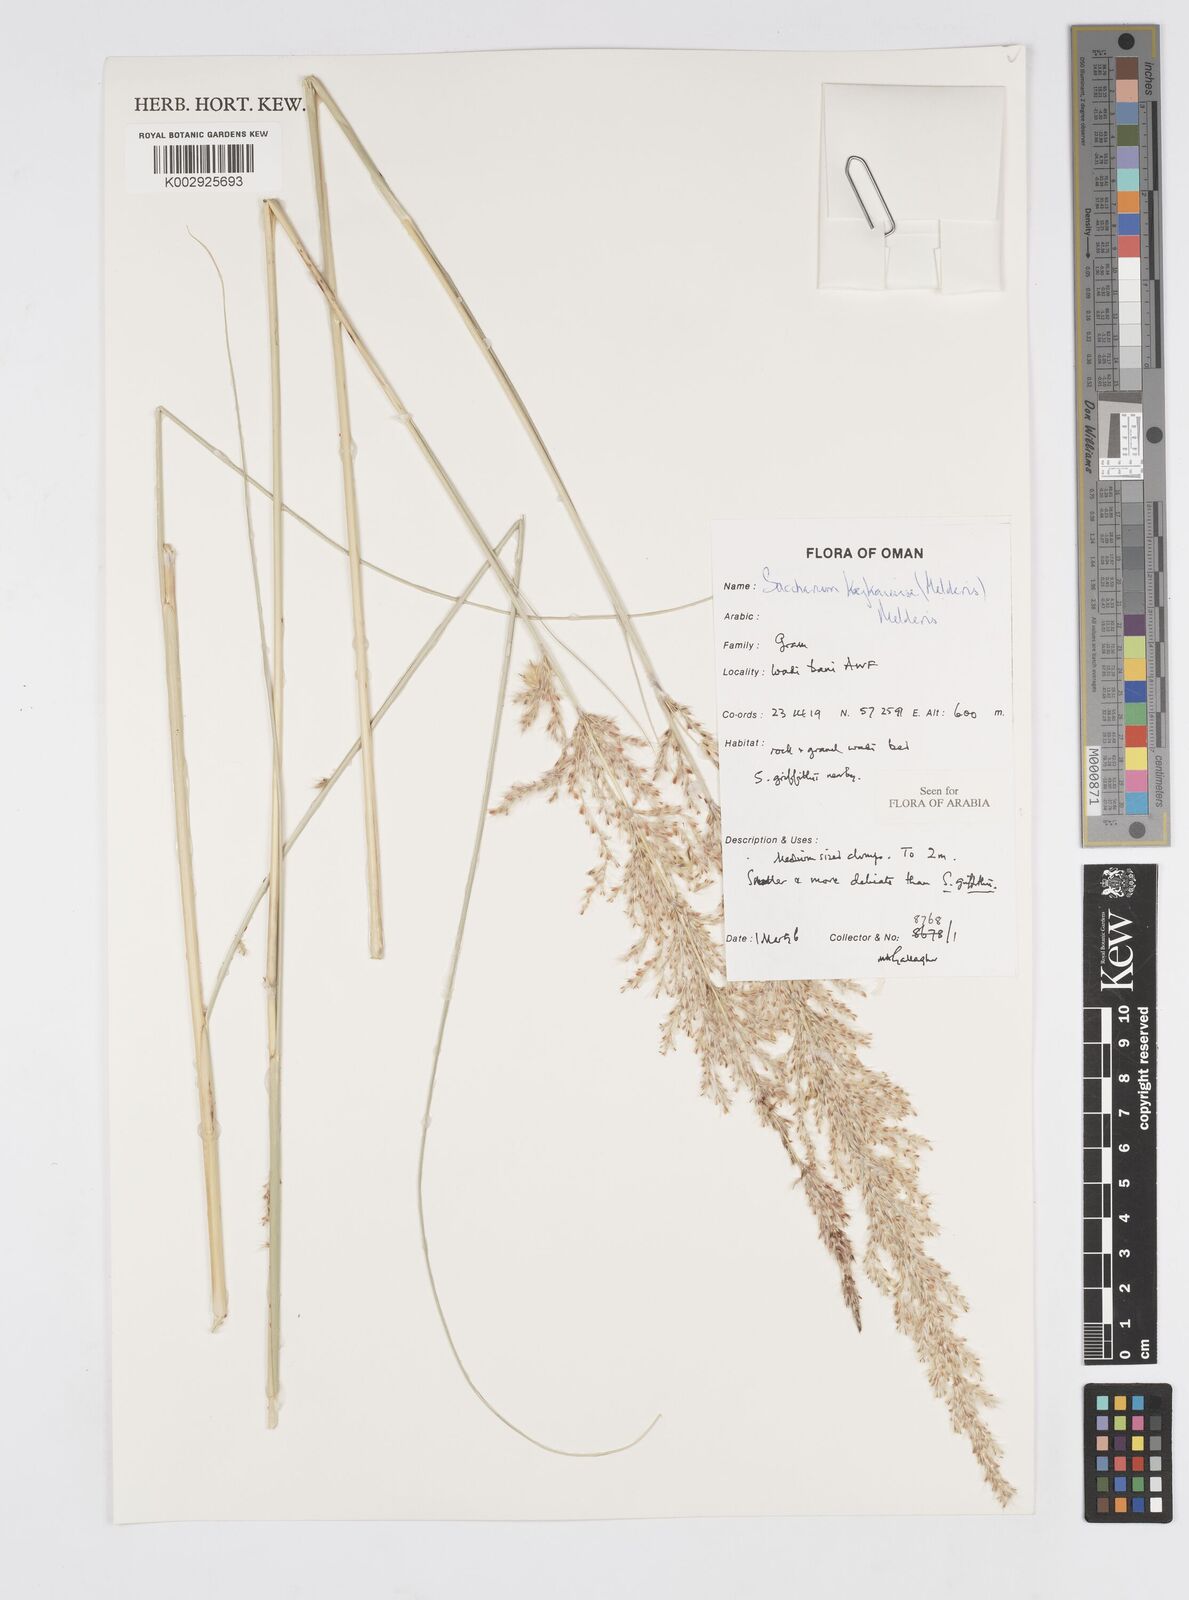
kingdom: Plantae
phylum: Tracheophyta
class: Liliopsida
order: Poales
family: Poaceae
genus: Saccharum
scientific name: Saccharum kajkaiense
